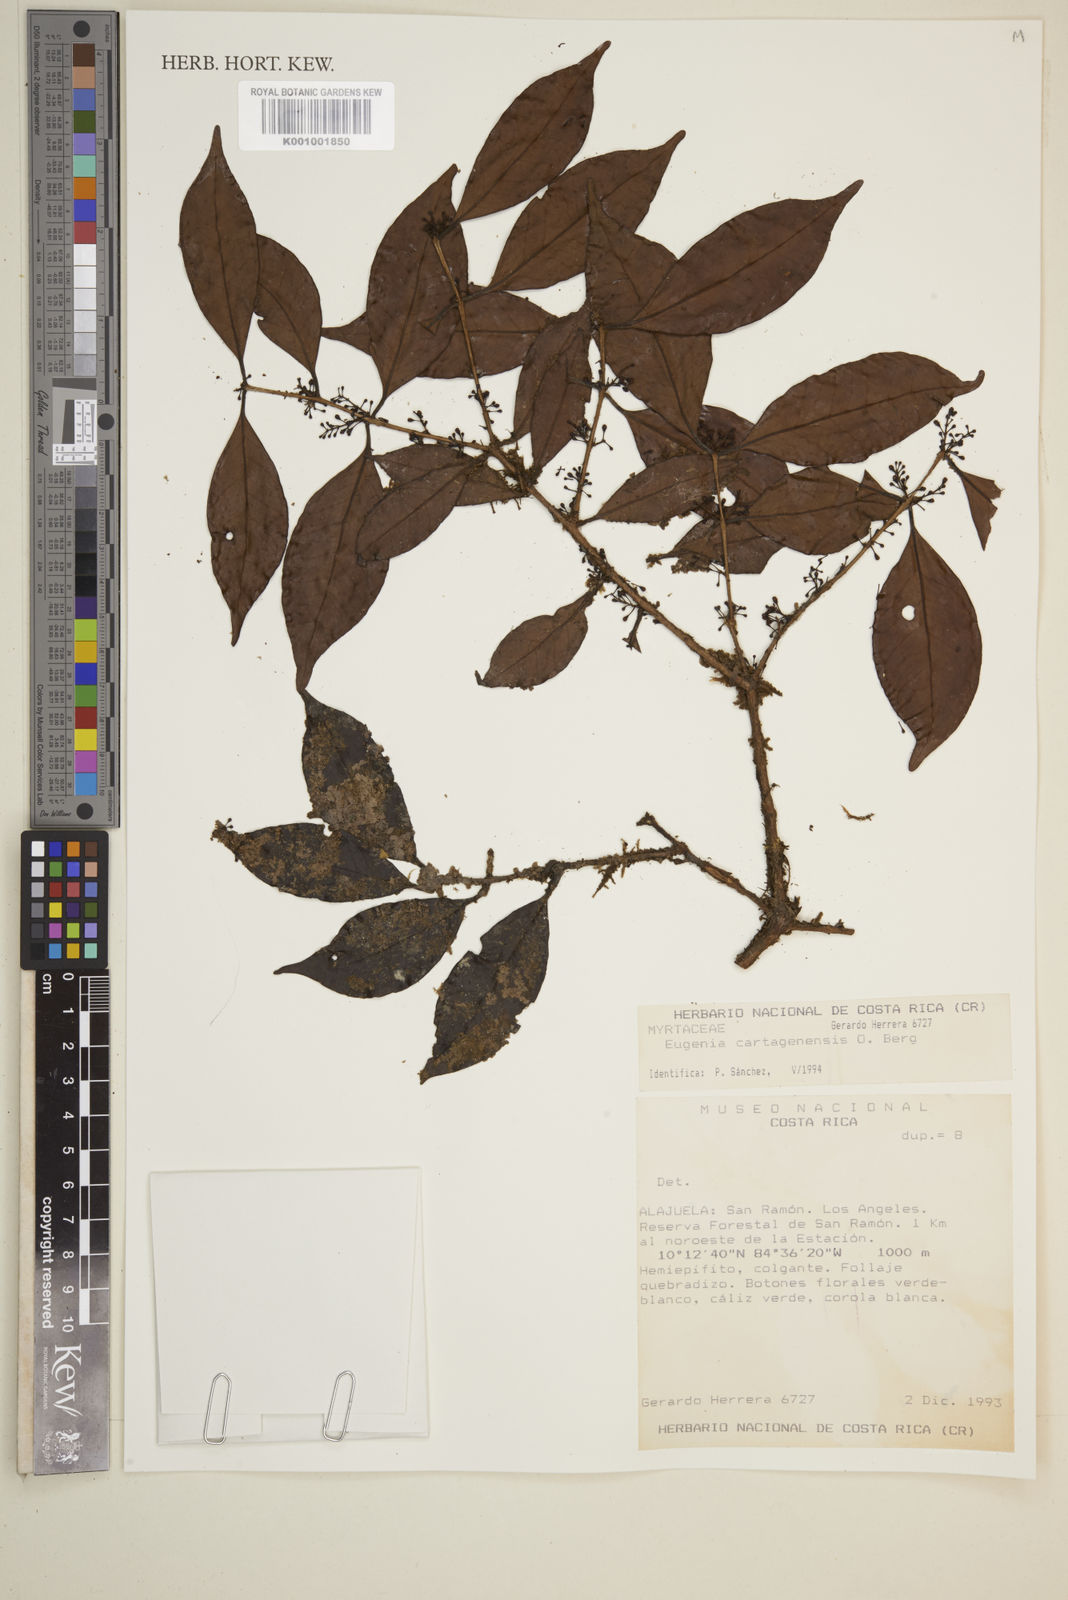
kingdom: Plantae
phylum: Tracheophyta
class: Magnoliopsida
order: Myrtales
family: Myrtaceae
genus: Eugenia
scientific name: Eugenia cartagensis
